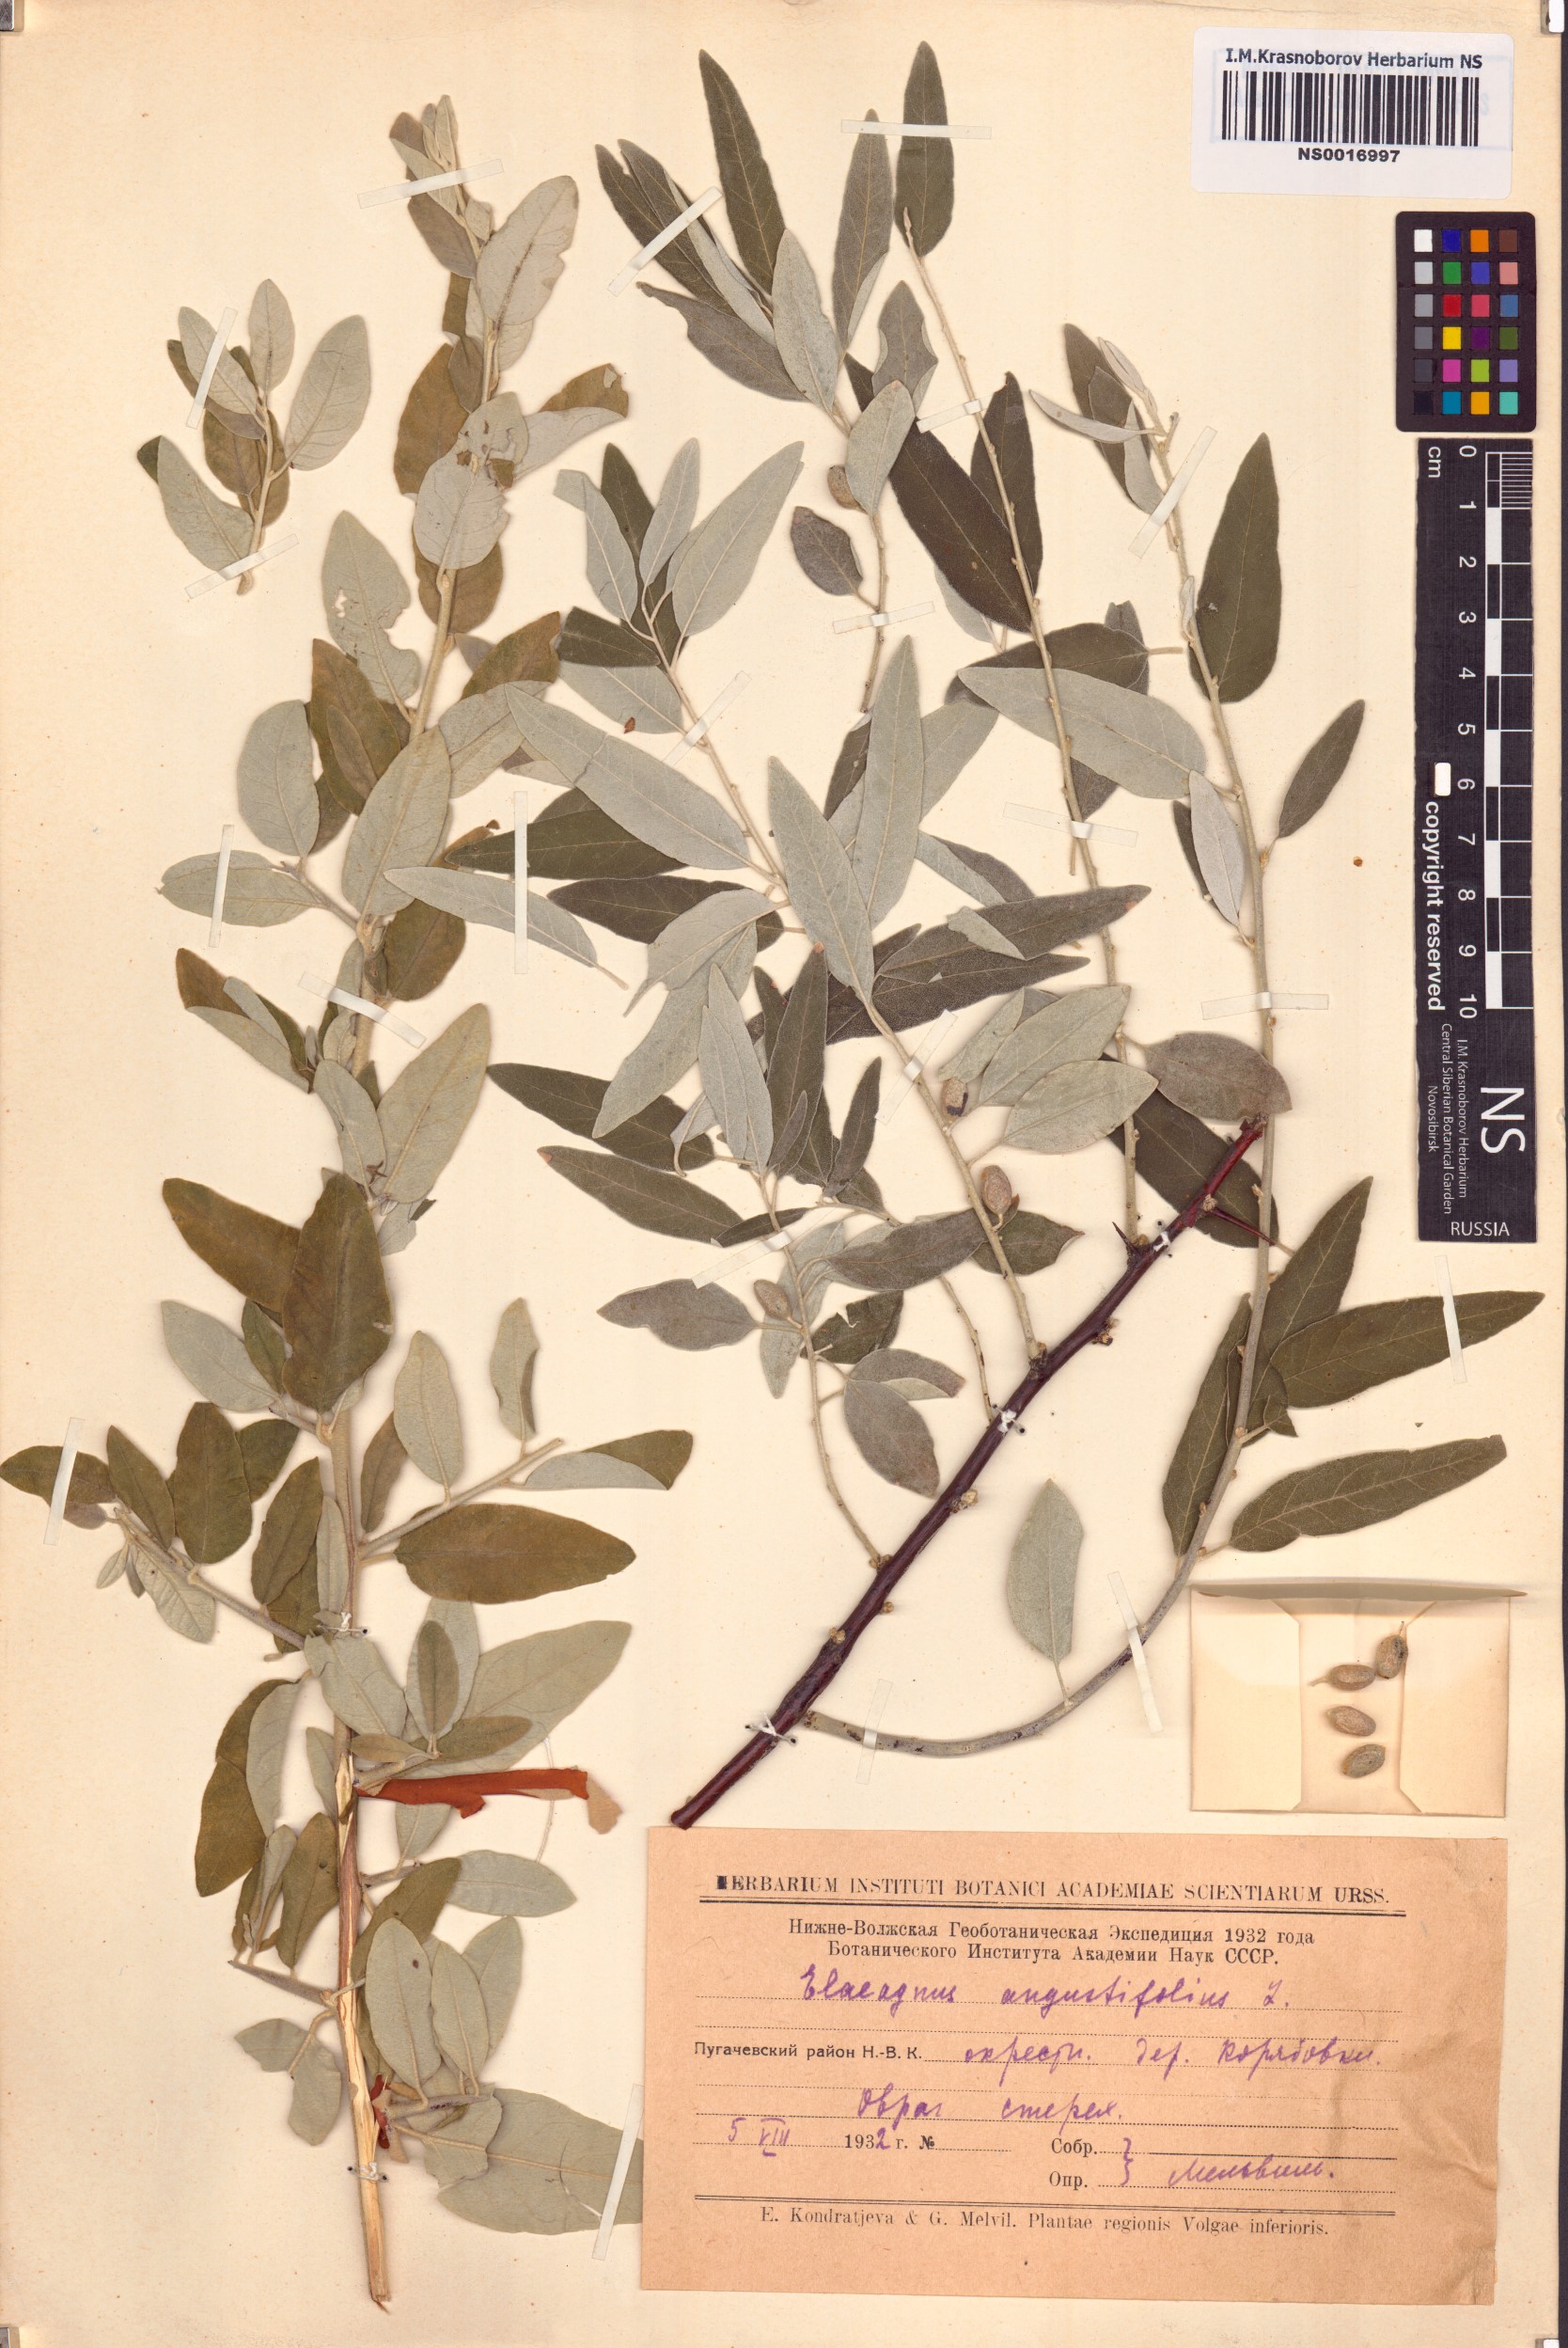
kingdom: Plantae
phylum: Tracheophyta
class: Magnoliopsida
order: Rosales
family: Elaeagnaceae
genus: Elaeagnus
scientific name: Elaeagnus angustifolia
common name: Russian olive
